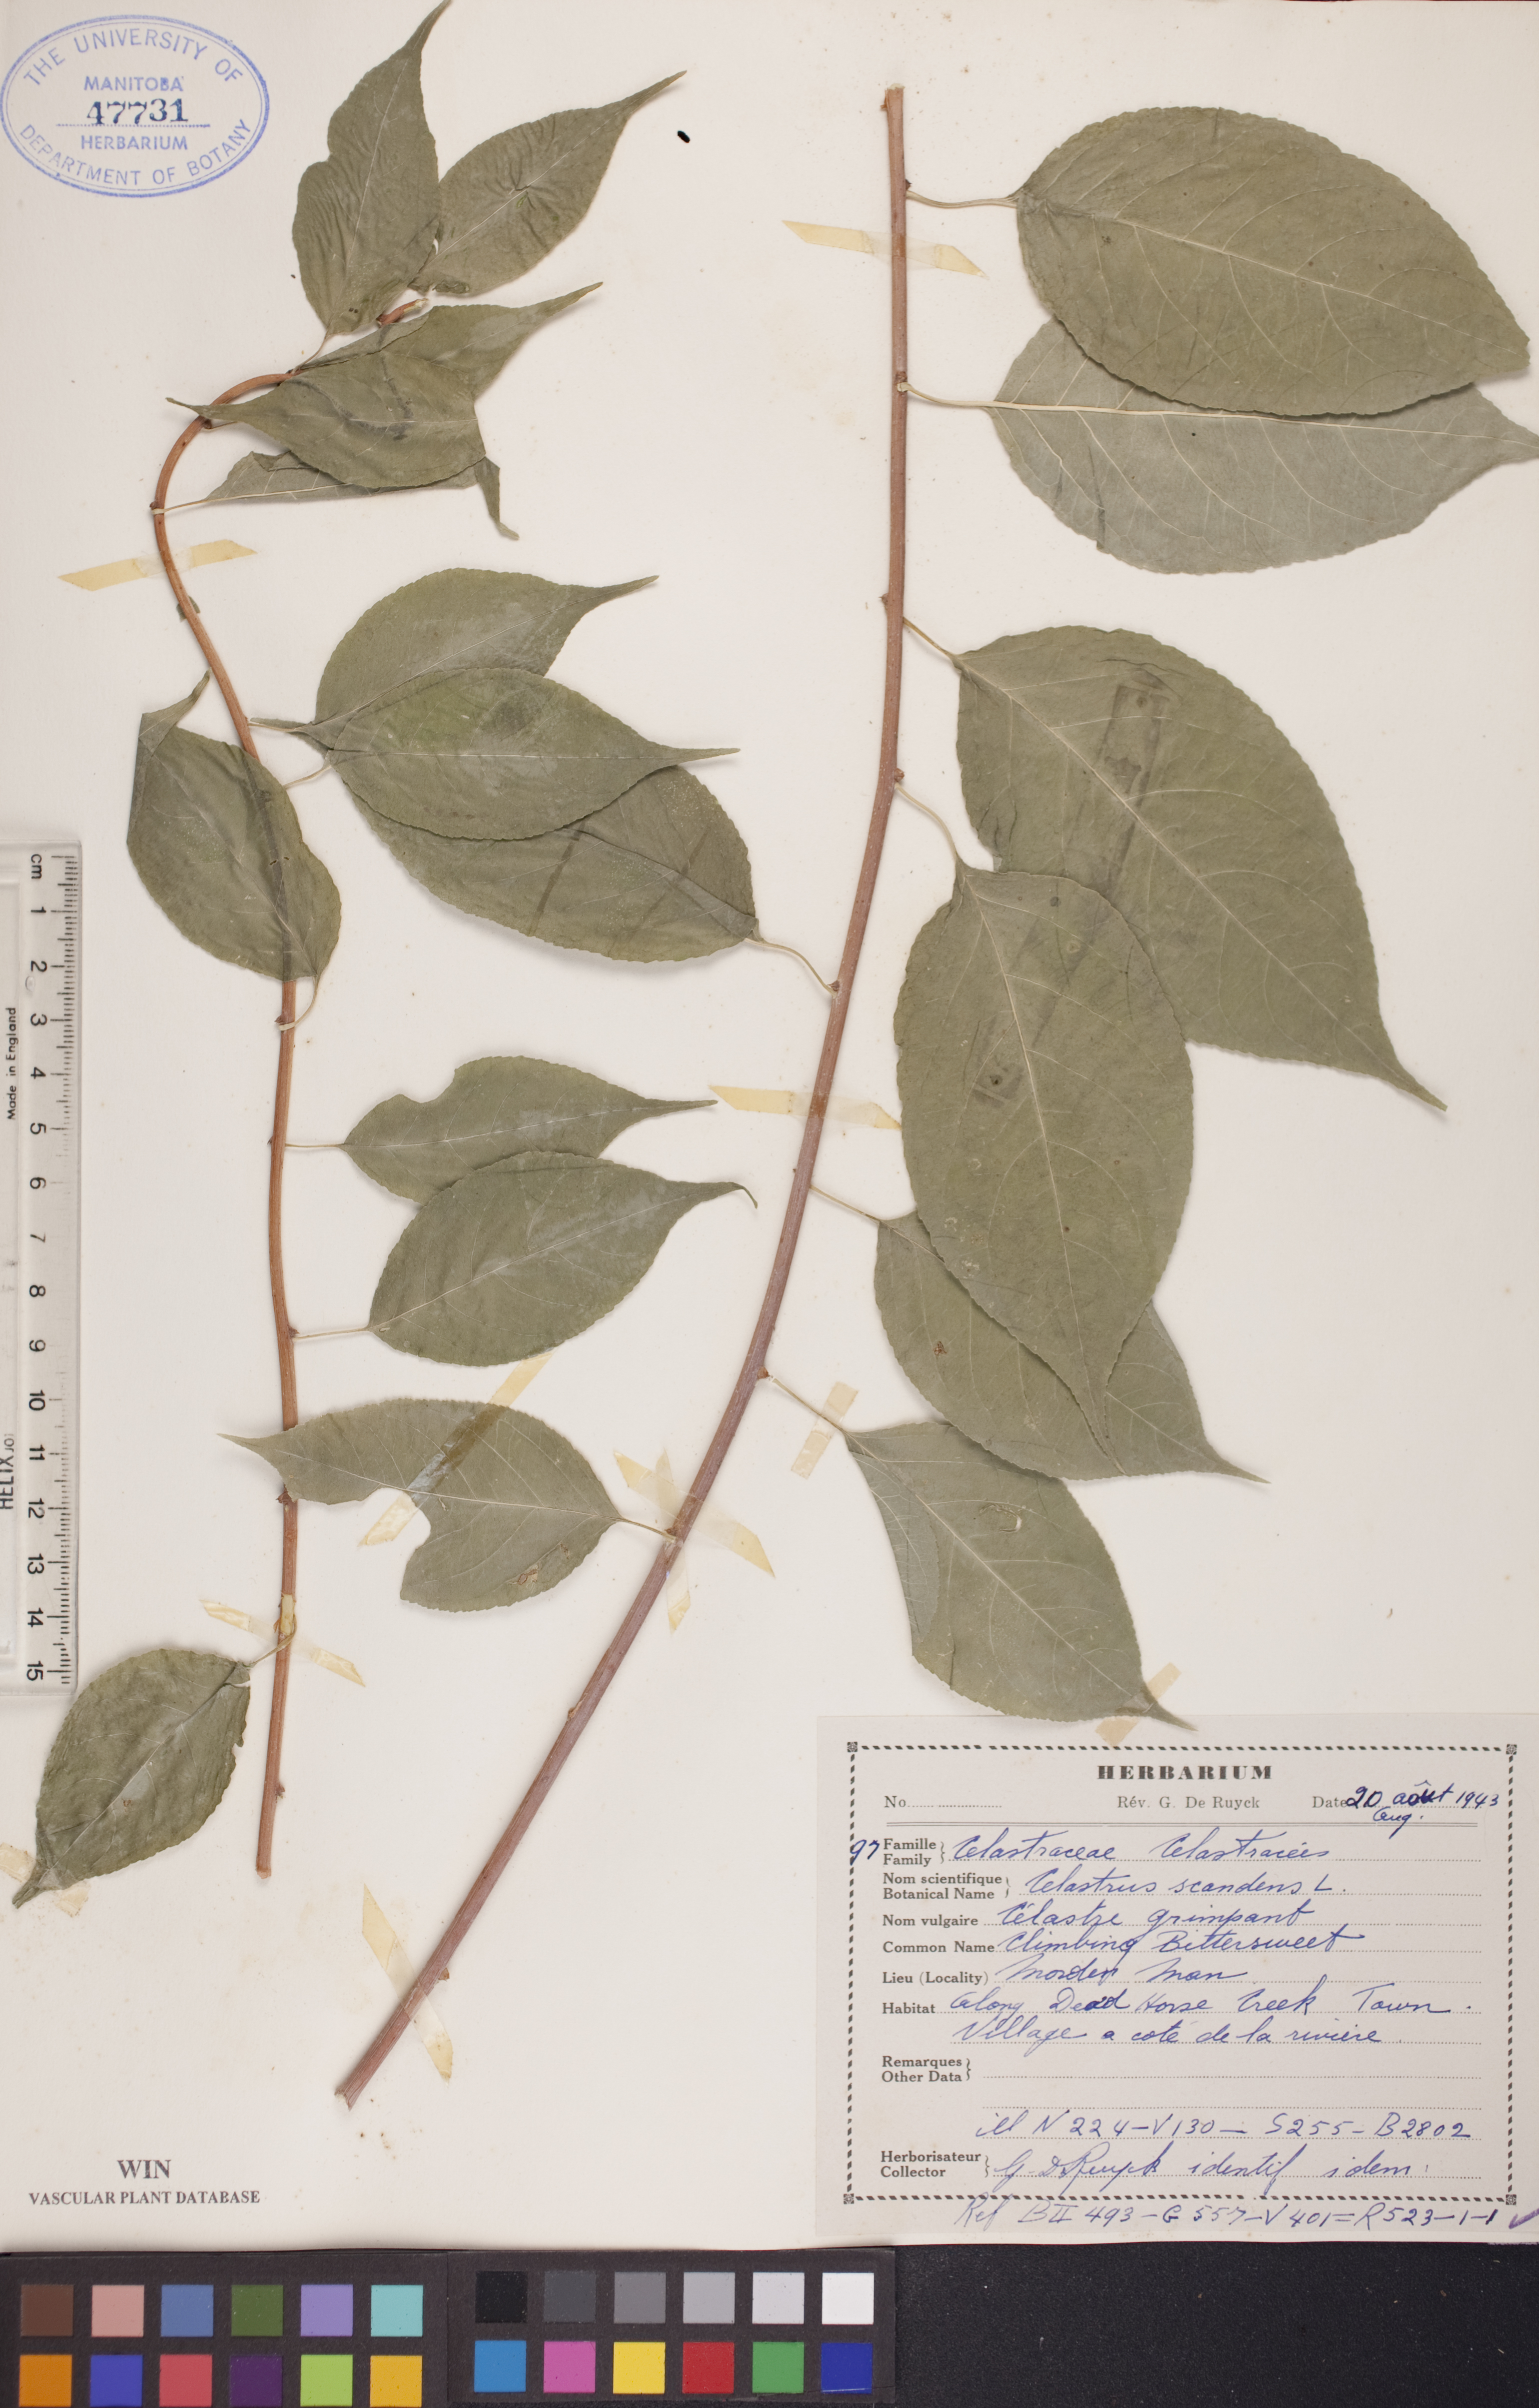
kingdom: Plantae
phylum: Tracheophyta
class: Magnoliopsida
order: Celastrales
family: Celastraceae
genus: Celastrus
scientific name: Celastrus scandens
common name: American bittersweet
